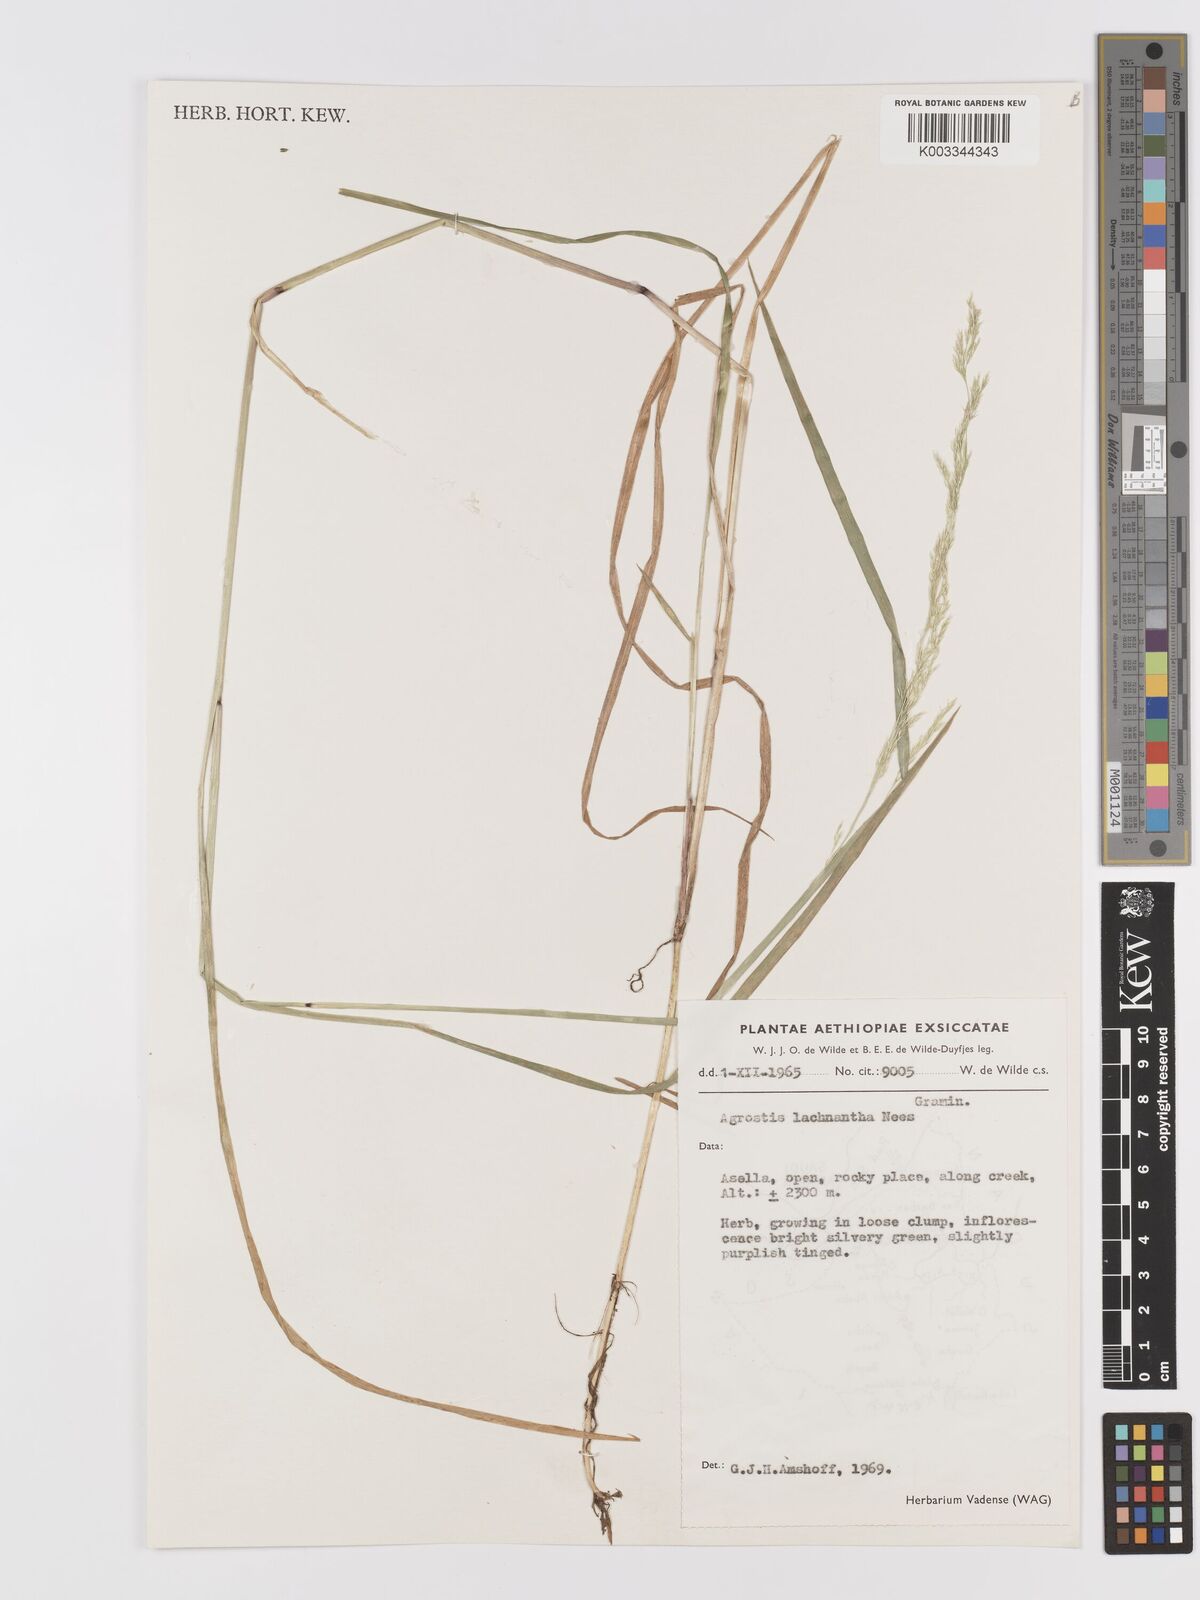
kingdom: Plantae
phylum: Tracheophyta
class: Liliopsida
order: Poales
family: Poaceae
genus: Lachnagrostis
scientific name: Lachnagrostis lachnantha
